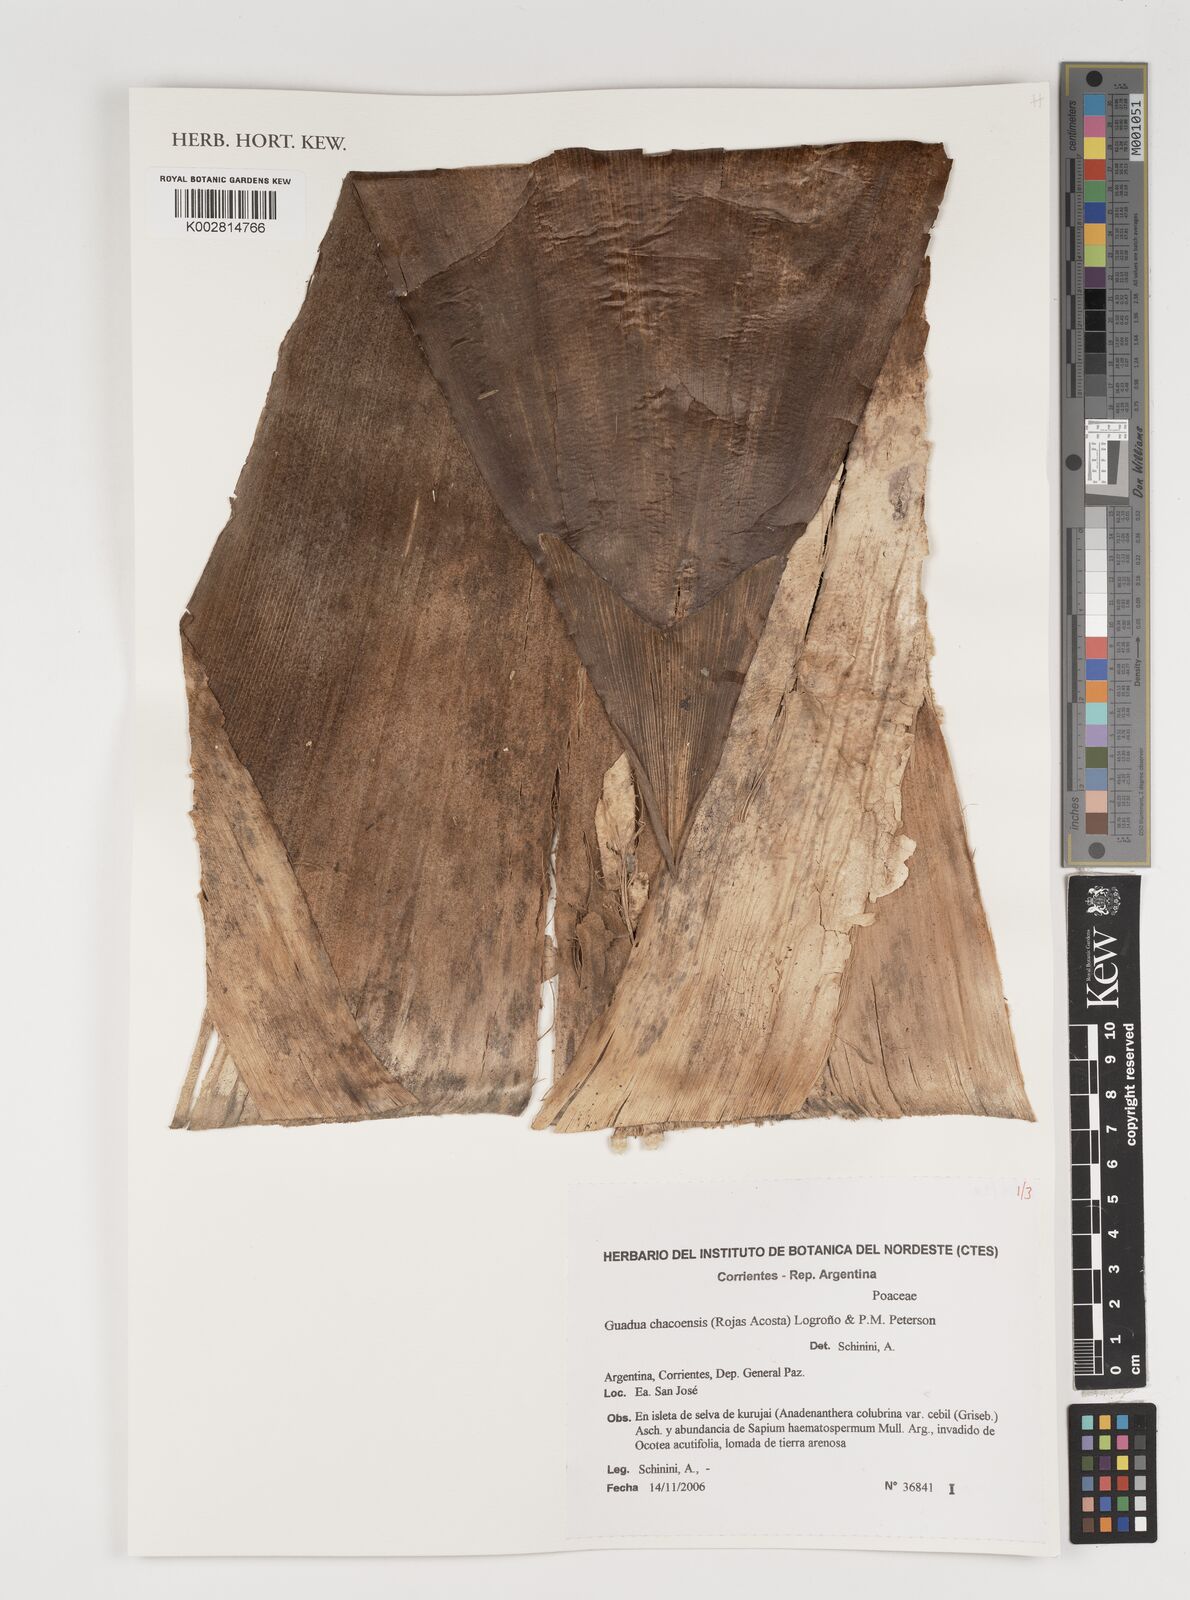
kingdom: Plantae
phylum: Tracheophyta
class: Liliopsida
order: Poales
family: Poaceae
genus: Guadua
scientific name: Guadua chacoensis
